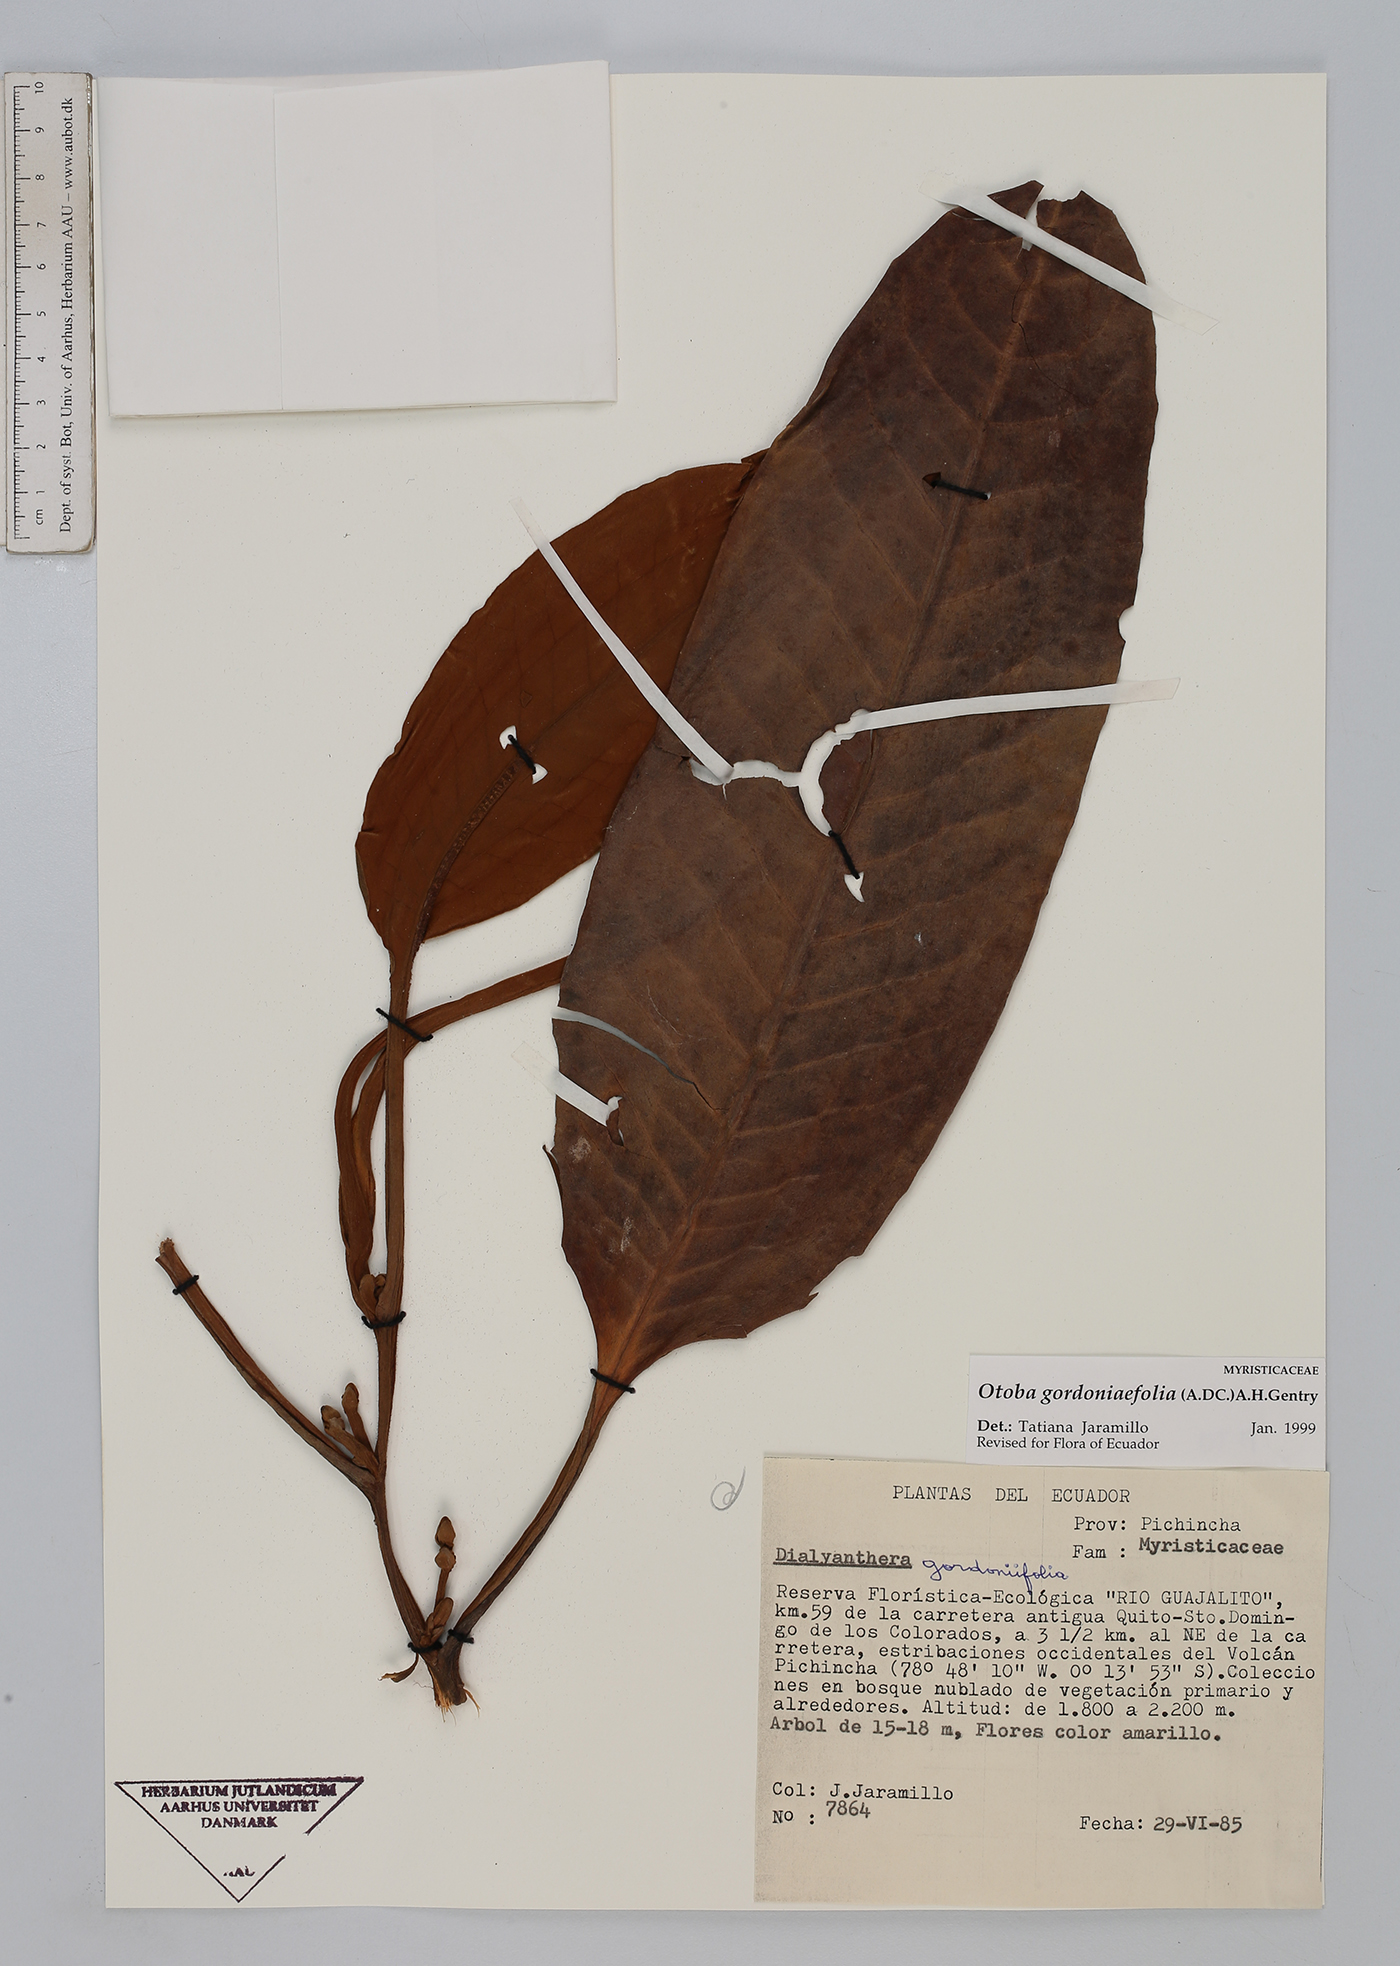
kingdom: Plantae
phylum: Tracheophyta
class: Magnoliopsida
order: Magnoliales
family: Myristicaceae
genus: Otoba
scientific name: Otoba gordoniifolia
